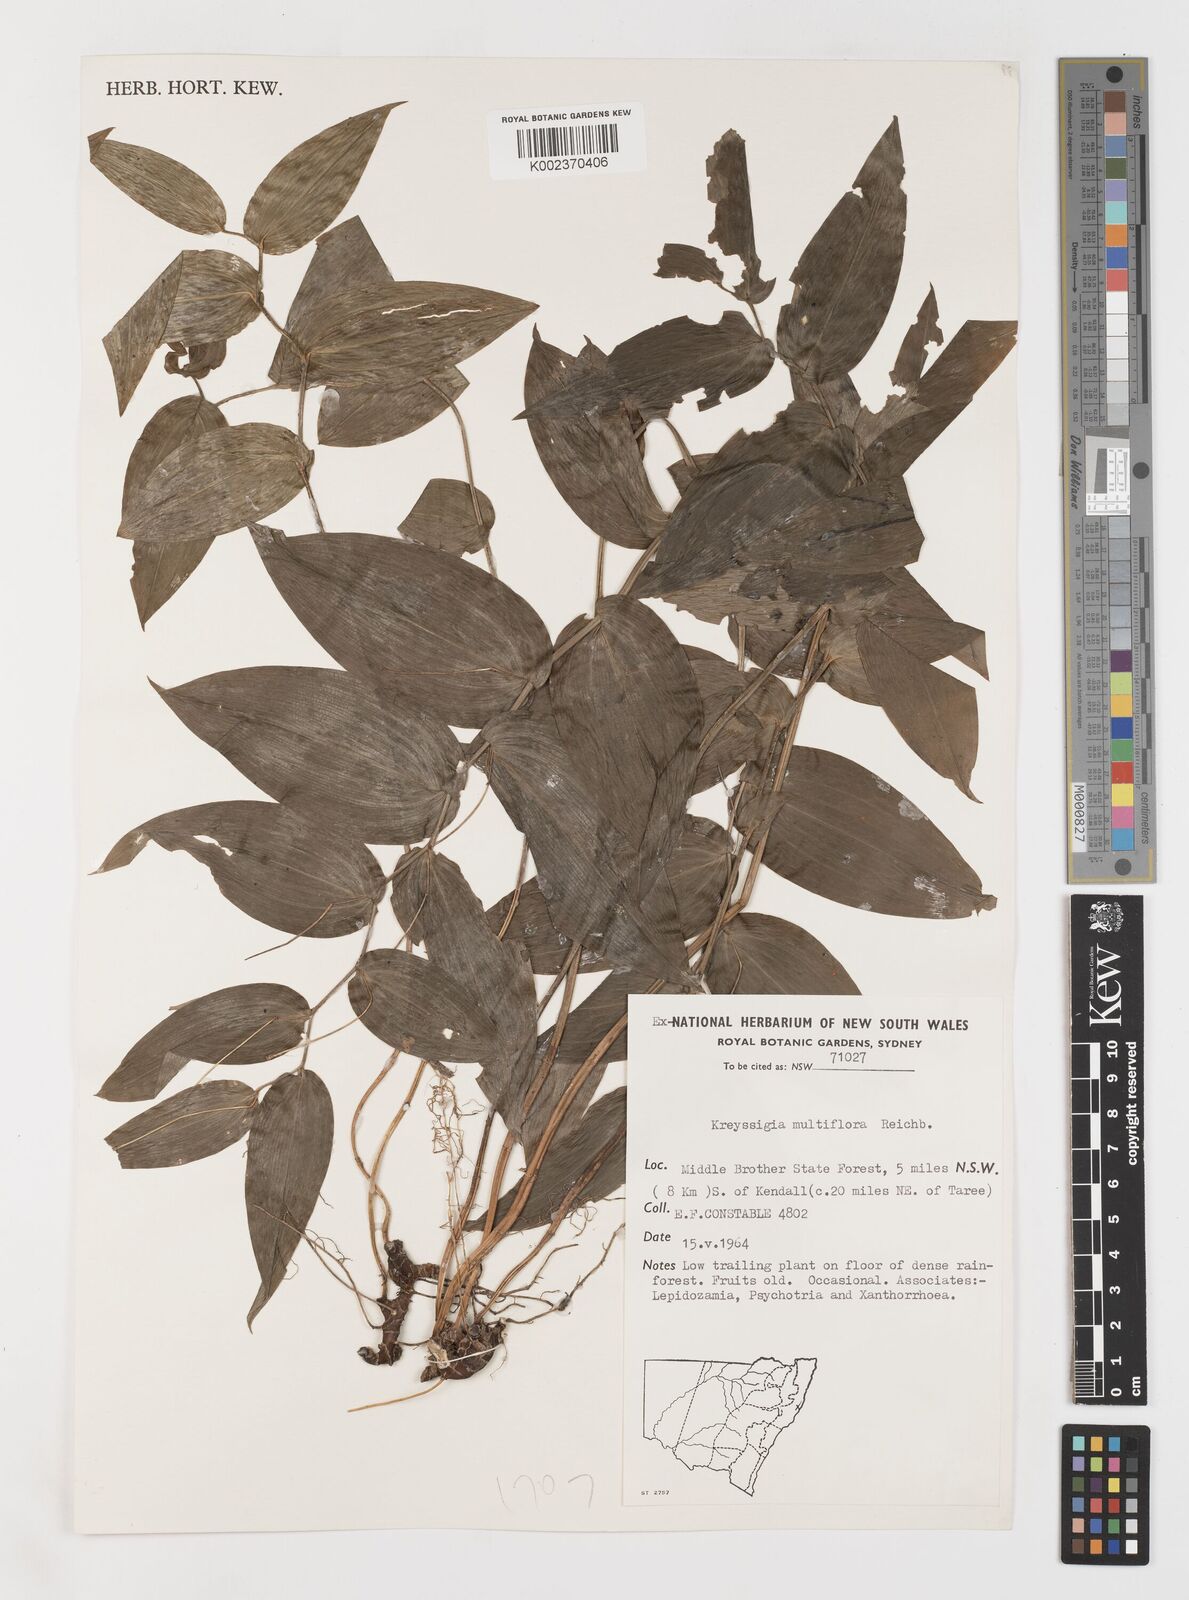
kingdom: Plantae
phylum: Tracheophyta
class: Liliopsida
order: Liliales
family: Colchicaceae
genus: Tripladenia
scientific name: Tripladenia
